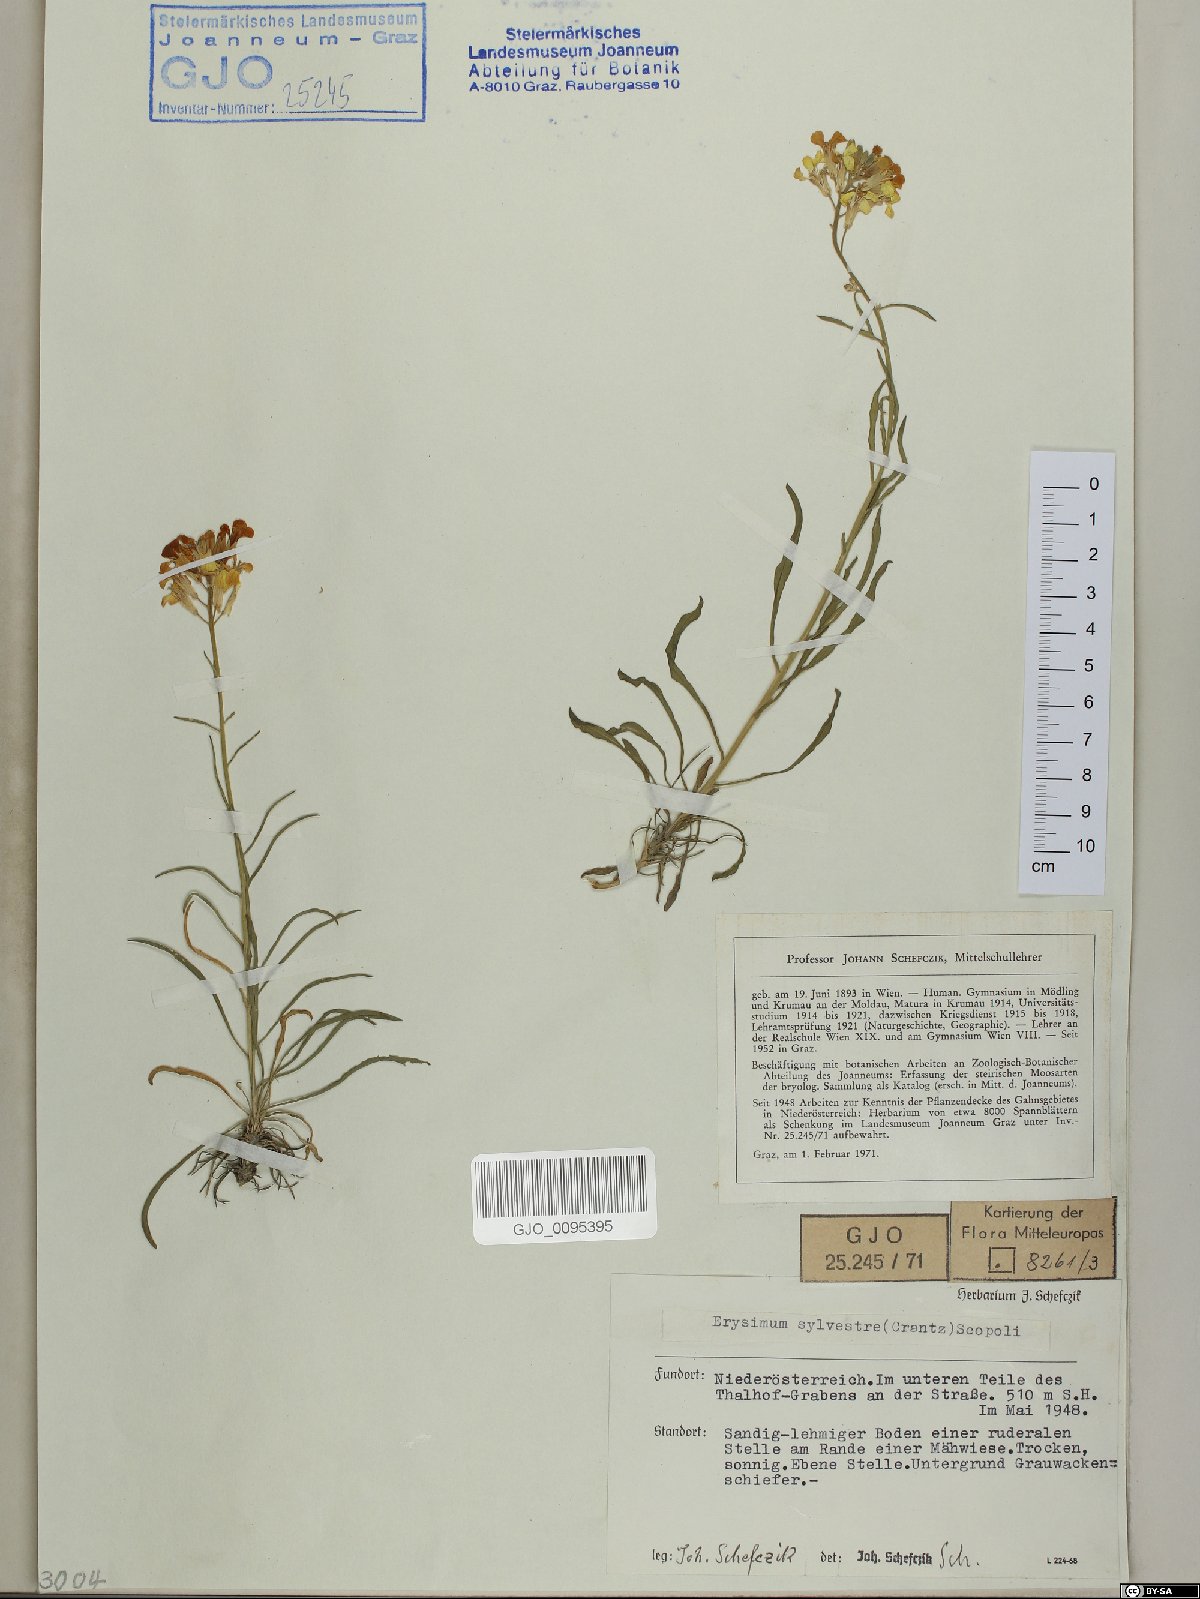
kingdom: Plantae
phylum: Tracheophyta
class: Magnoliopsida
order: Brassicales
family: Brassicaceae
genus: Erysimum
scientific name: Erysimum sylvestre
